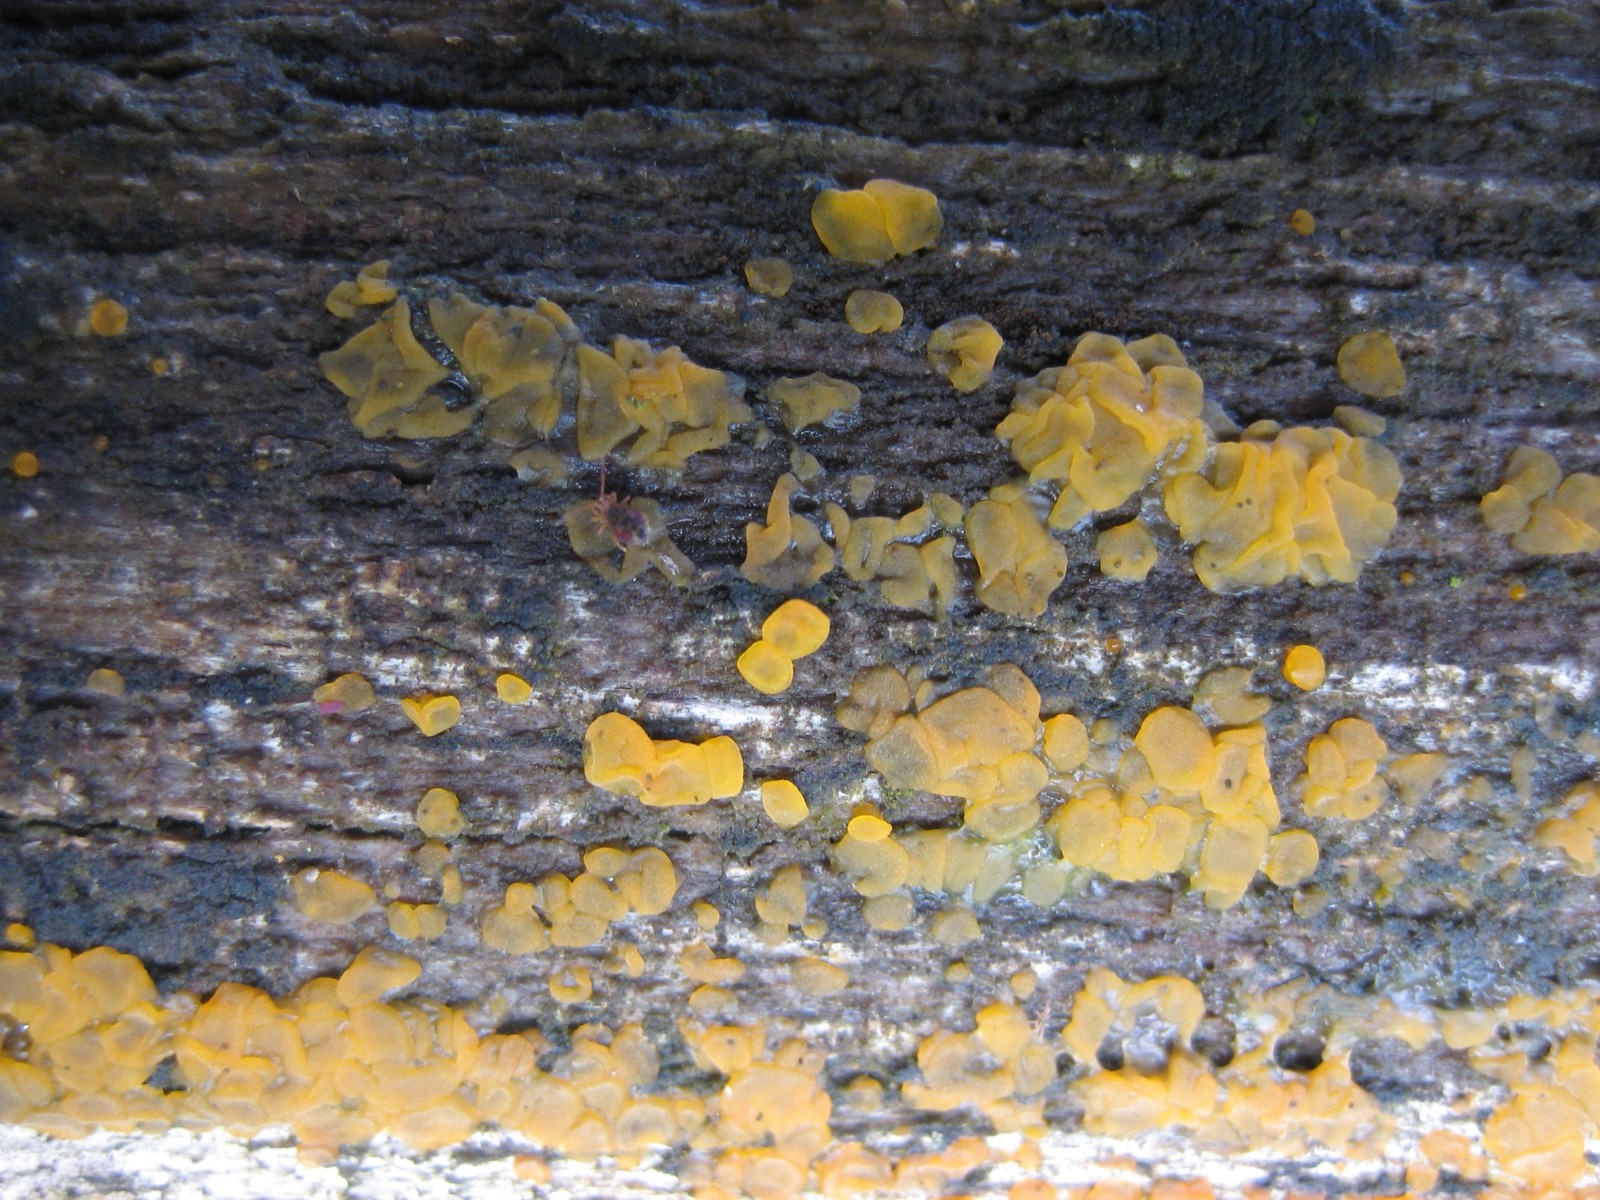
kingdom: Fungi
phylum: Basidiomycota
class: Dacrymycetes
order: Dacrymycetales
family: Dacrymycetaceae
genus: Dacrymyces
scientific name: Dacrymyces lacrymalis
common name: rynket tåresvamp
